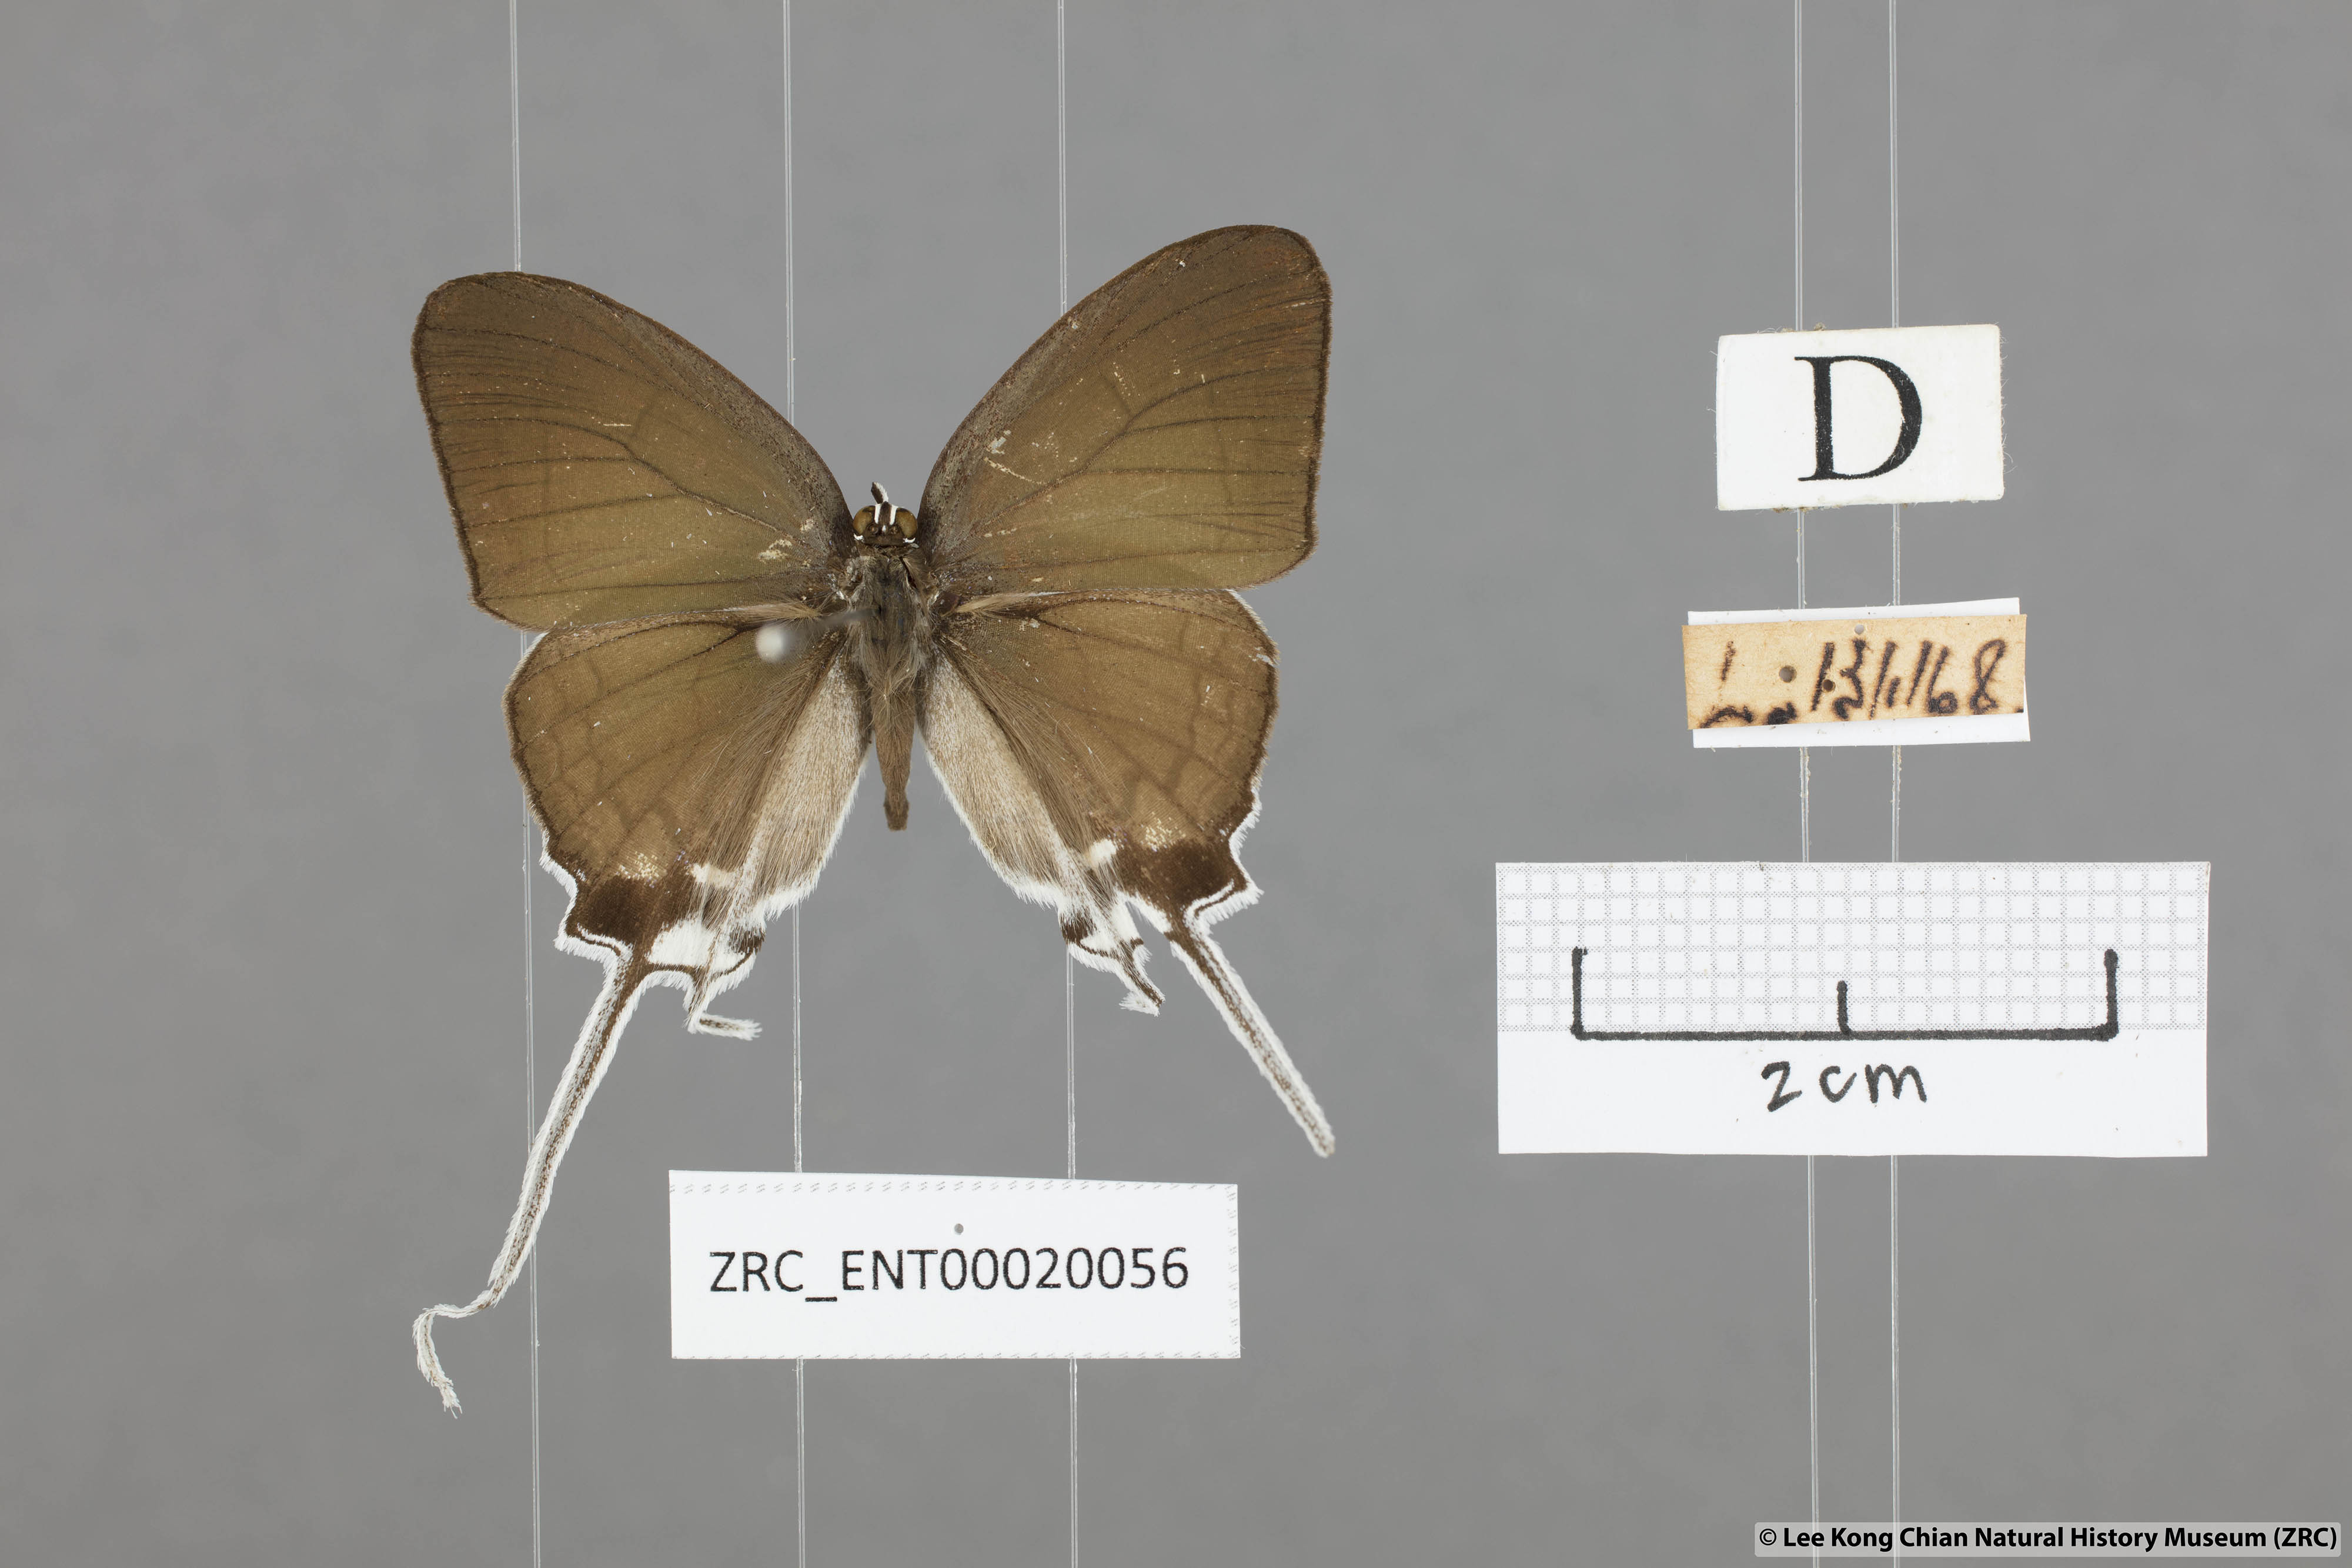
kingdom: Animalia
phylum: Arthropoda
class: Insecta
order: Lepidoptera
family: Lycaenidae
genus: Cheritra
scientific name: Cheritra freja
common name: Common imperial
